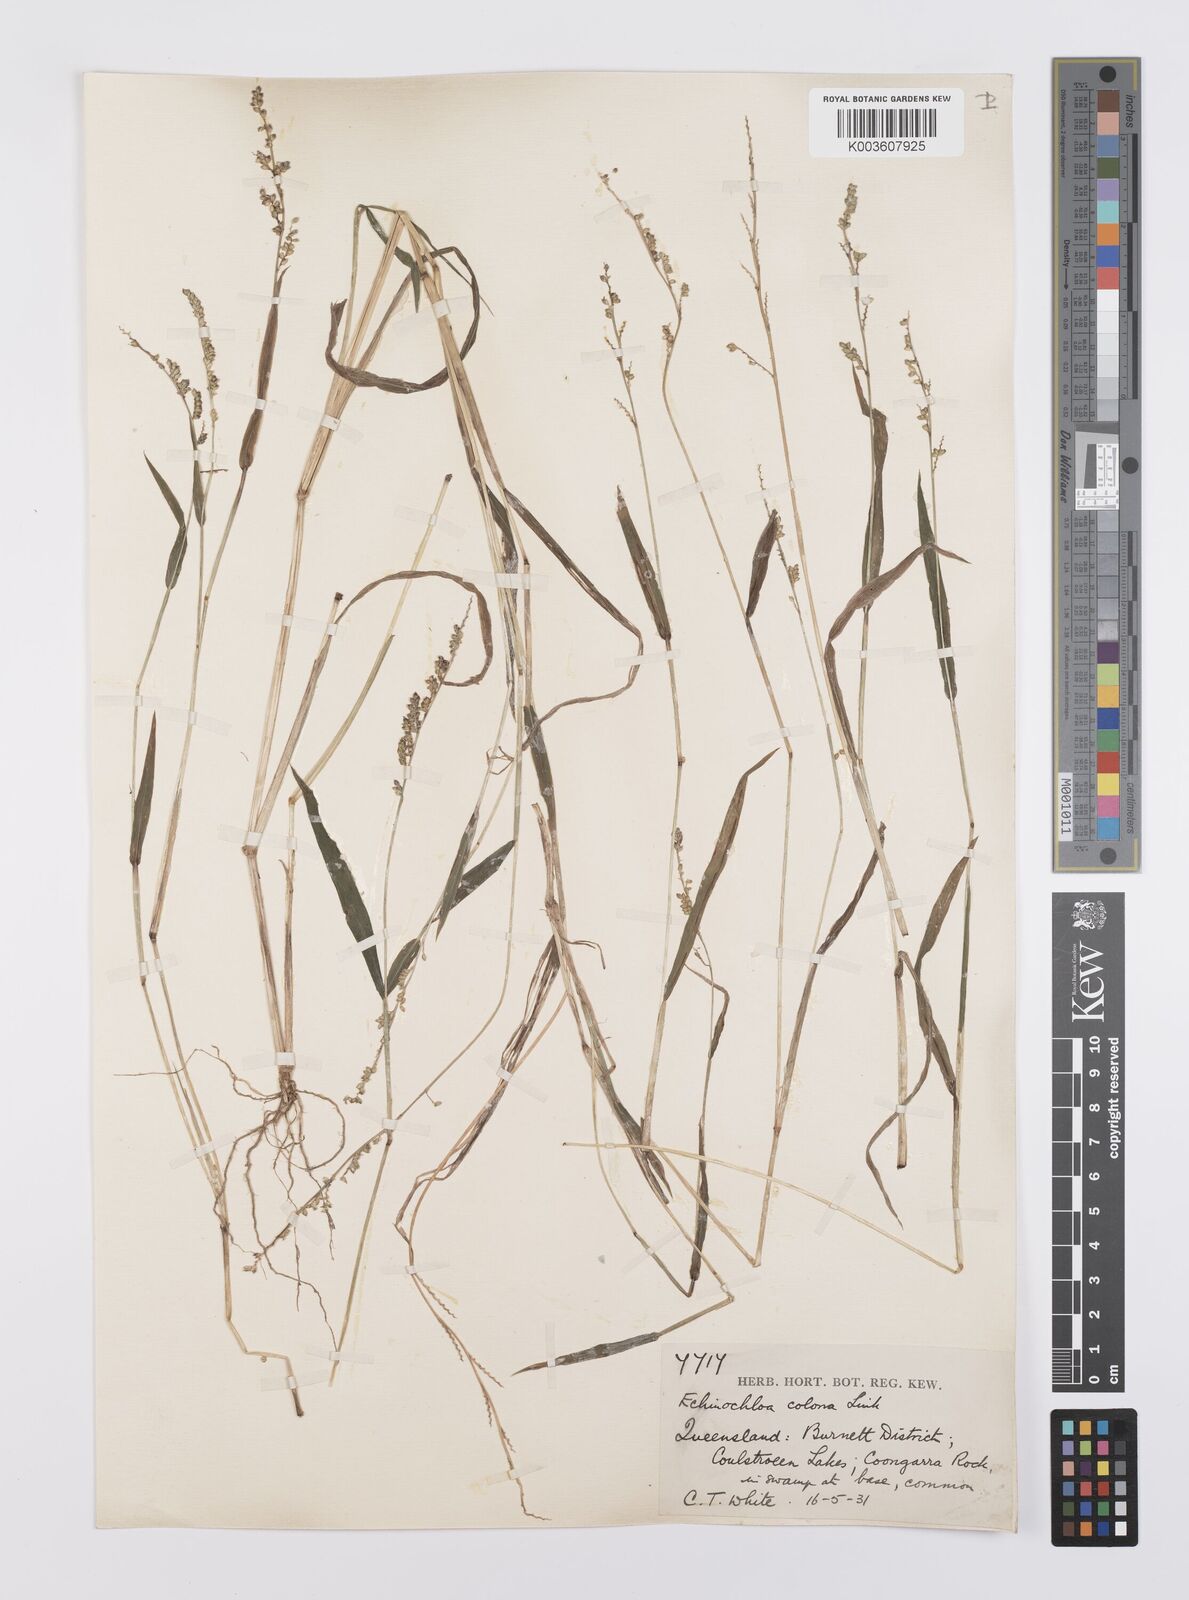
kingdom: Plantae
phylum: Tracheophyta
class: Liliopsida
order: Poales
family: Poaceae
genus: Echinochloa
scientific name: Echinochloa colonum
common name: Jungle rice
